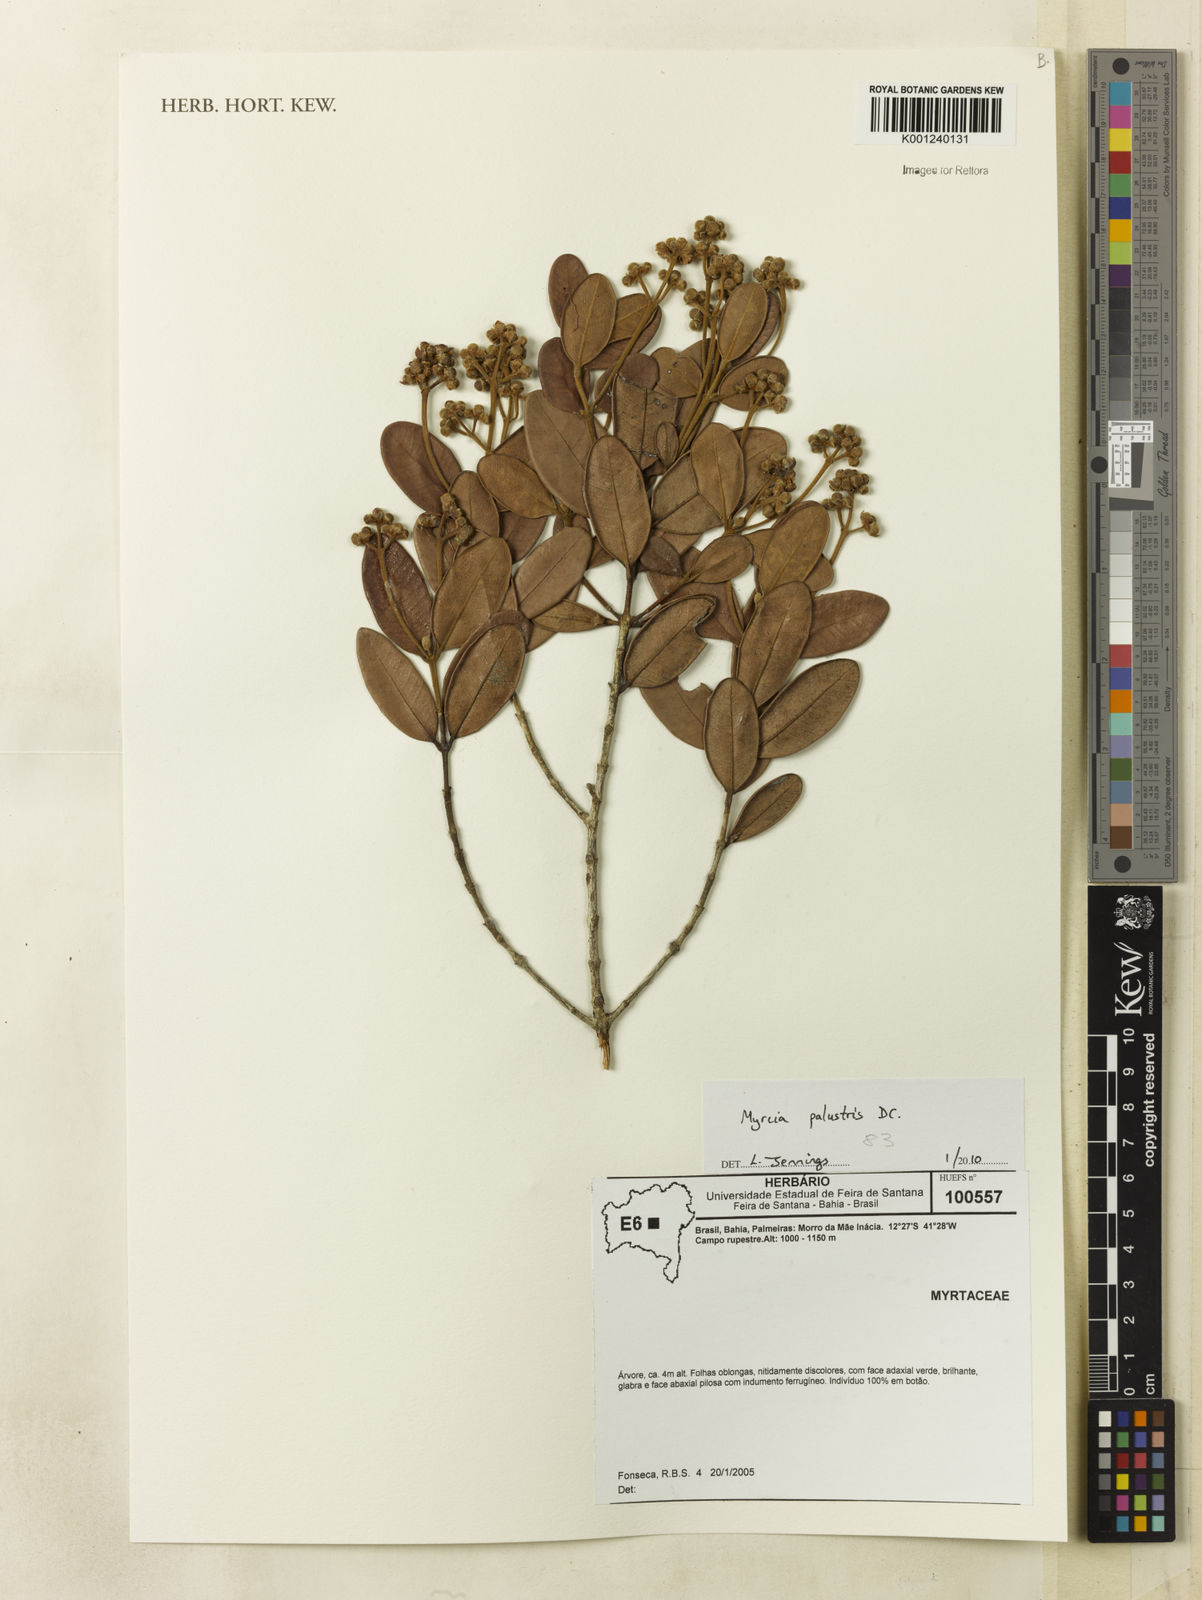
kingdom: Plantae
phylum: Tracheophyta
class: Magnoliopsida
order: Myrtales
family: Myrtaceae
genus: Myrcia
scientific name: Myrcia ilheosensis
